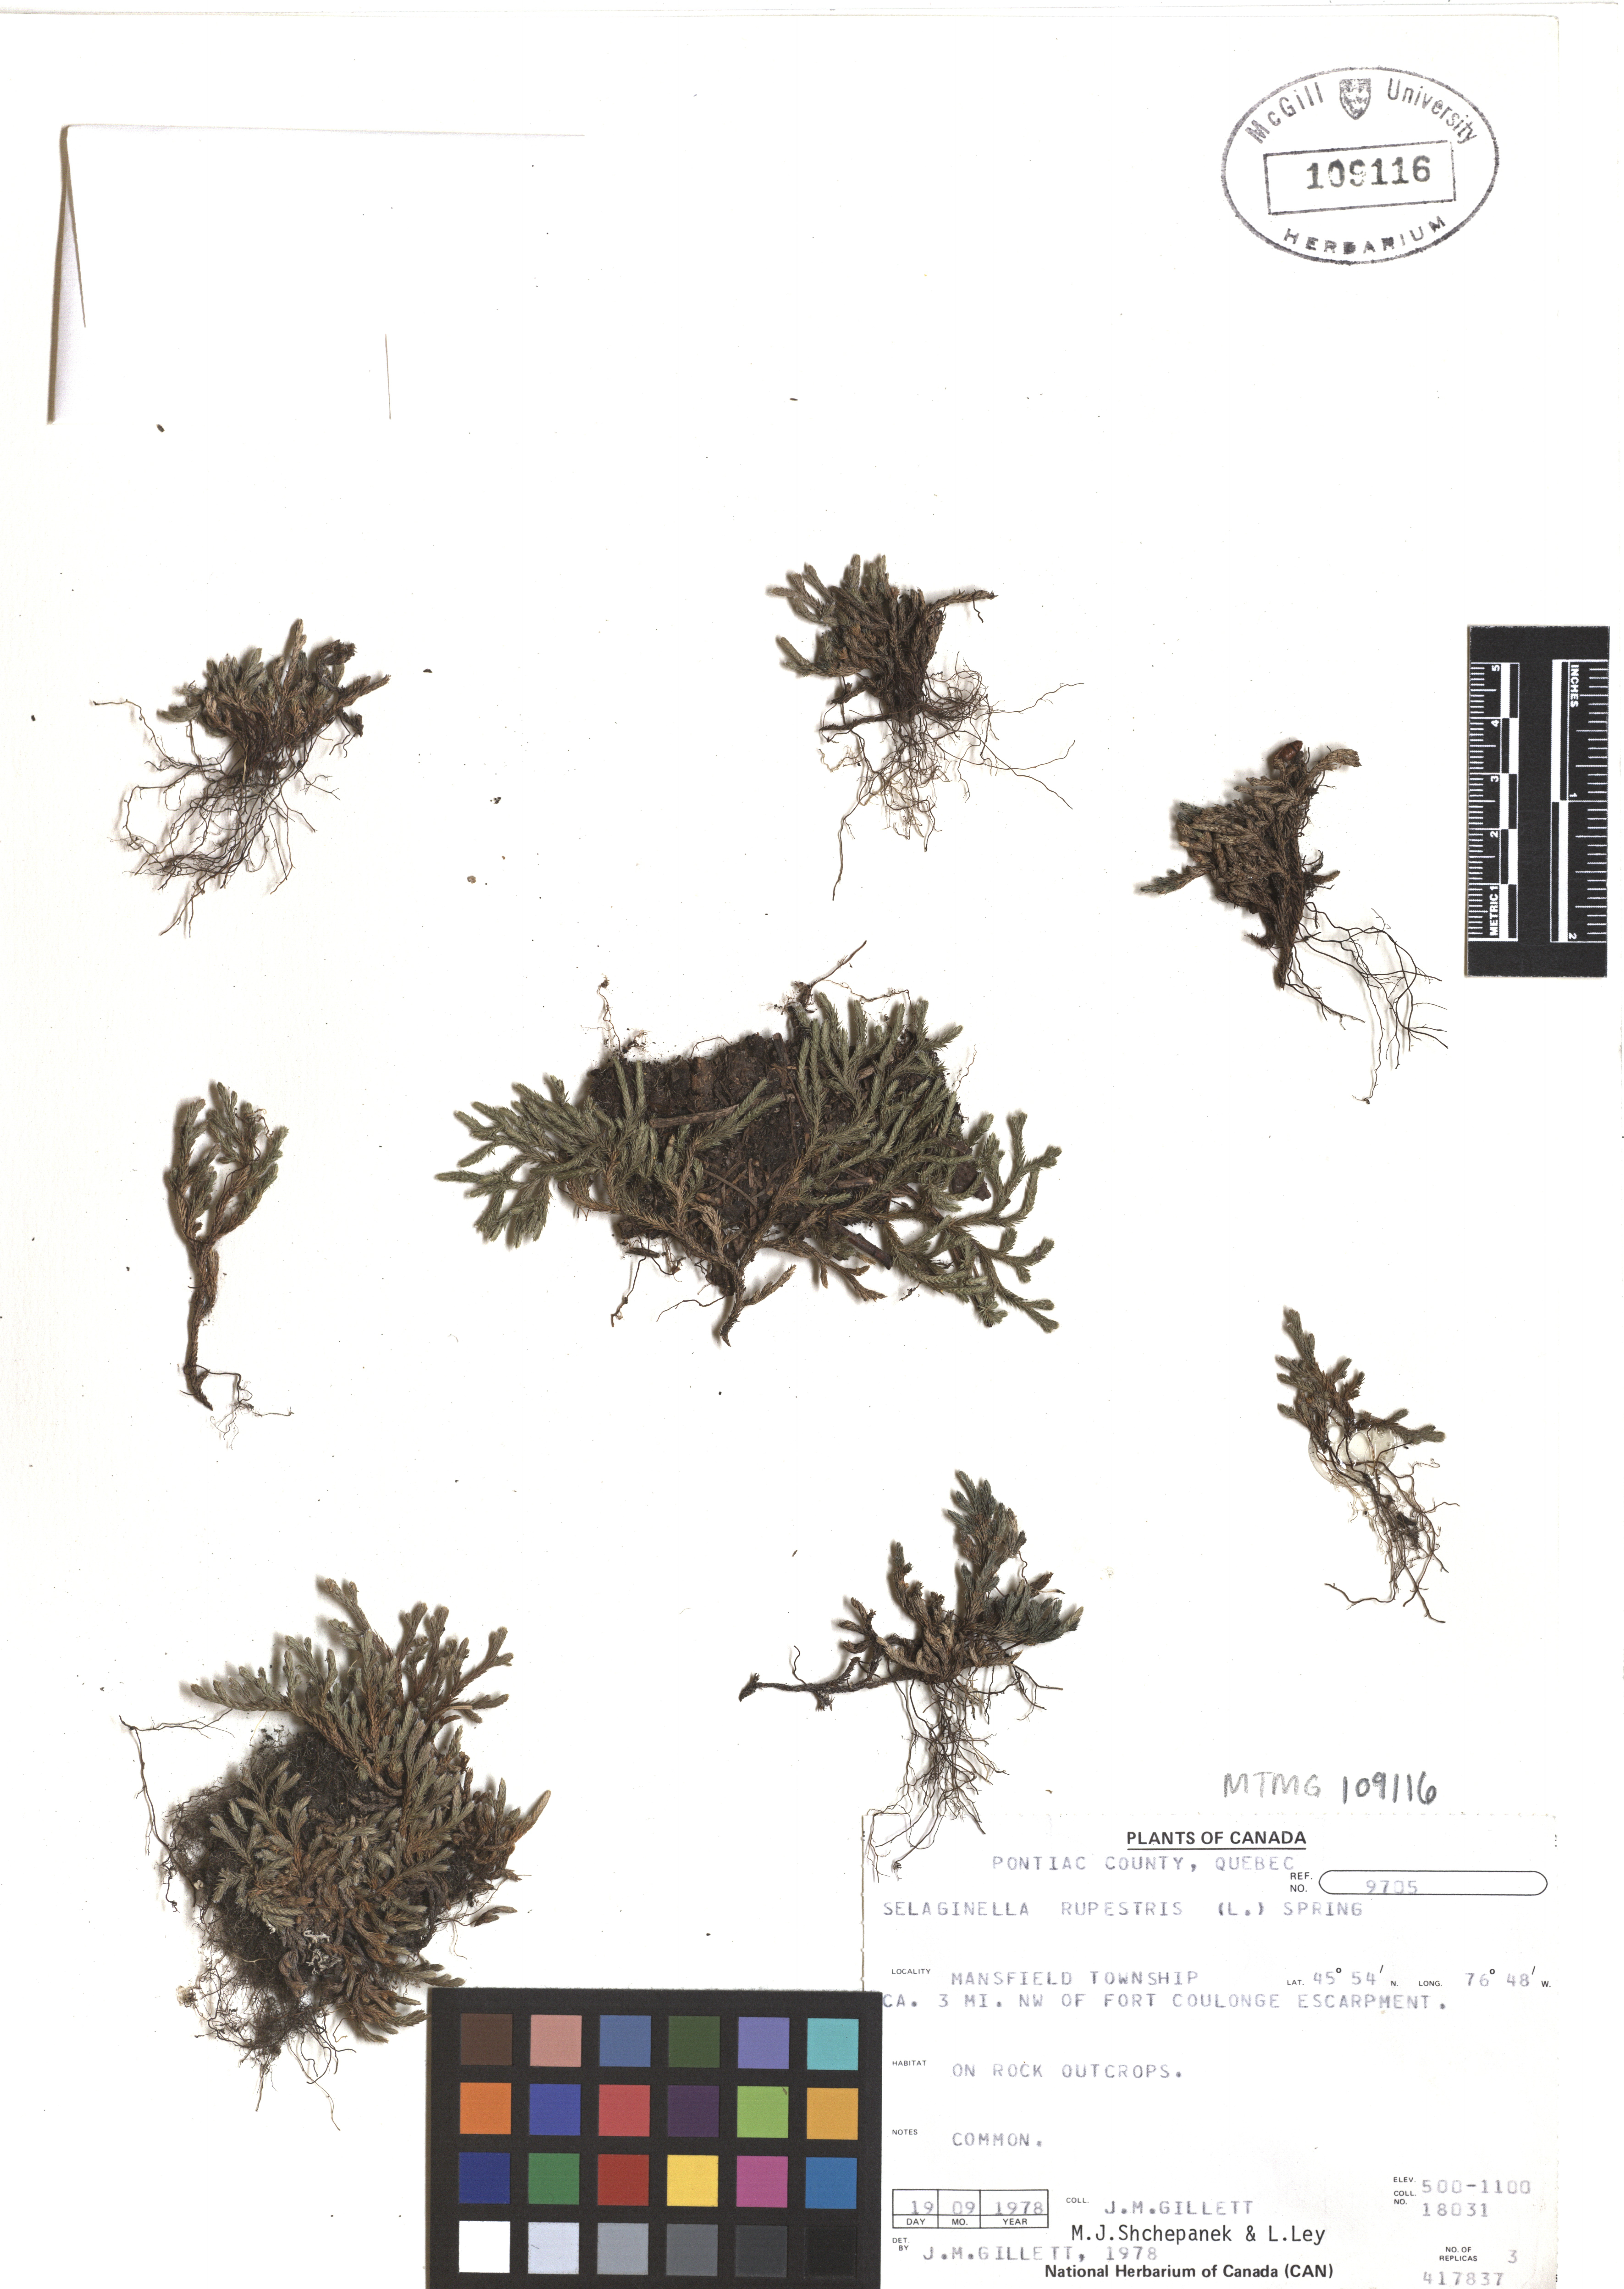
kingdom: Plantae
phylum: Tracheophyta
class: Lycopodiopsida
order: Selaginellales
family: Selaginellaceae
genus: Selaginella
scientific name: Selaginella sellowii
